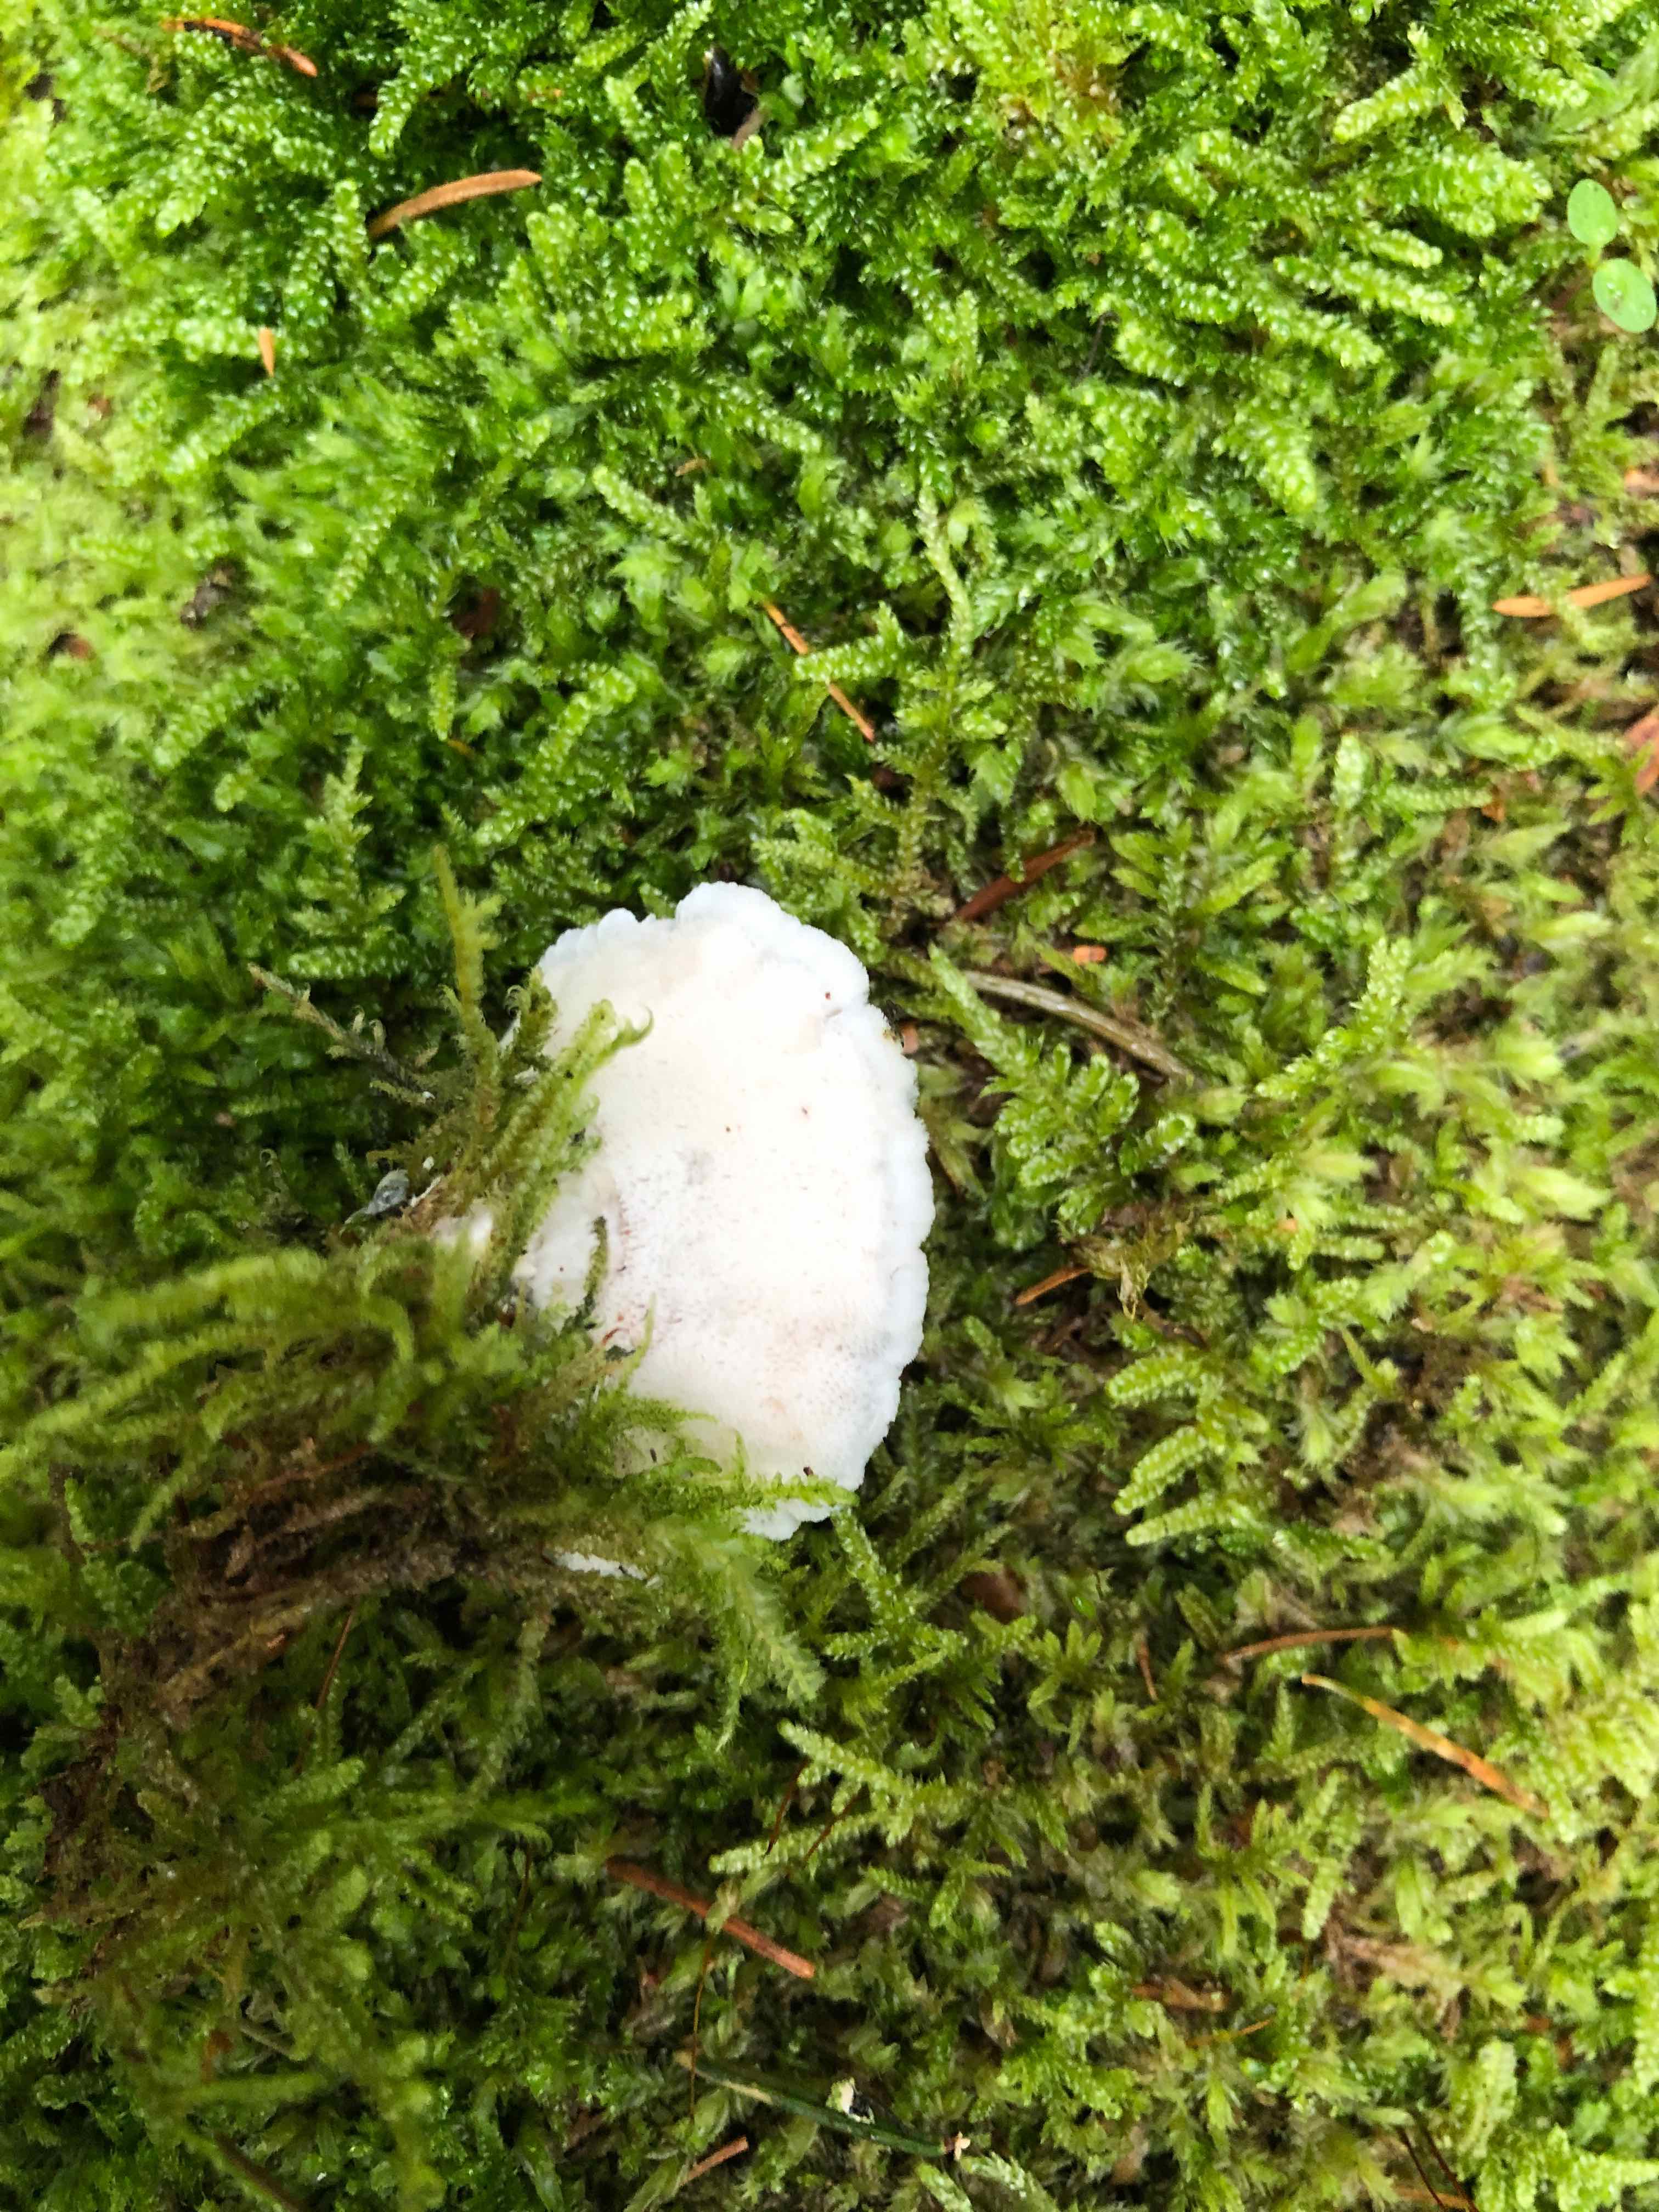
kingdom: Fungi
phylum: Basidiomycota
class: Agaricomycetes
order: Polyporales
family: Polyporaceae
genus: Cyanosporus
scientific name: Cyanosporus caesius
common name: blålig kødporesvamp
